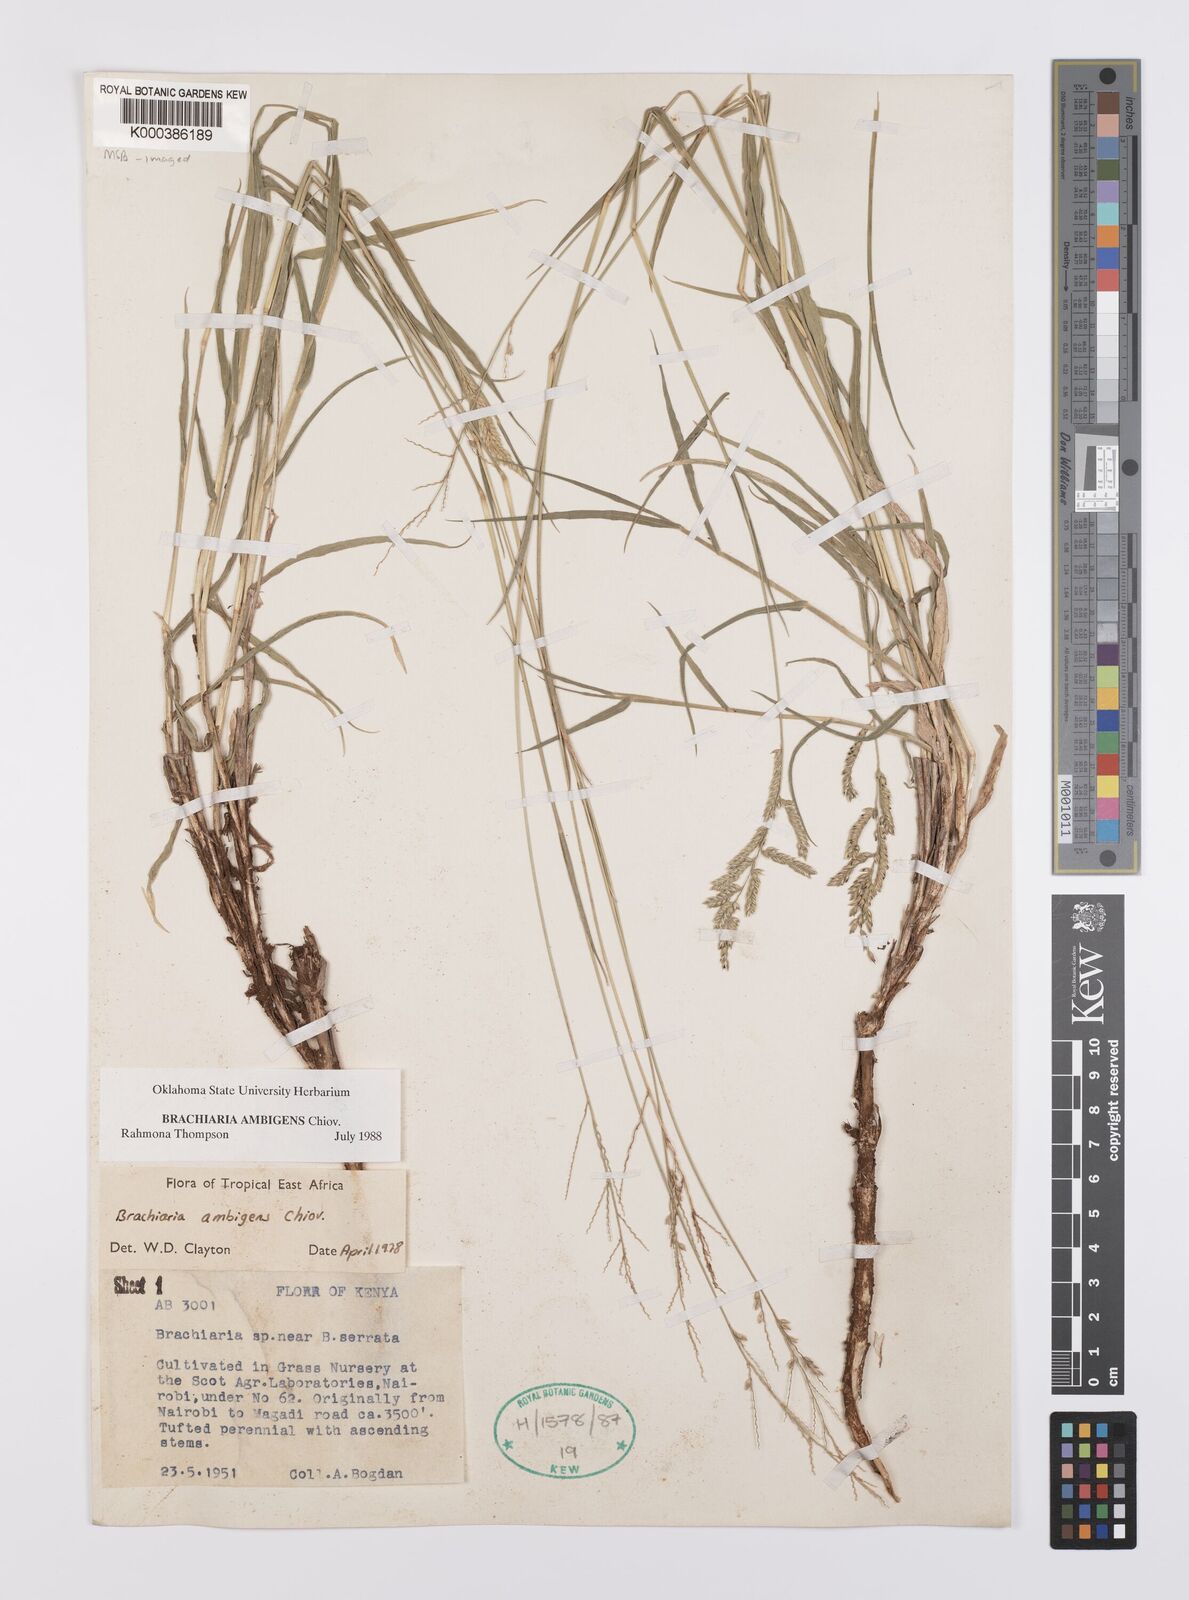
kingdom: Plantae
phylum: Tracheophyta
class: Liliopsida
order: Poales
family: Poaceae
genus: Urochloa
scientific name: Urochloa Brachiaria ambigens
